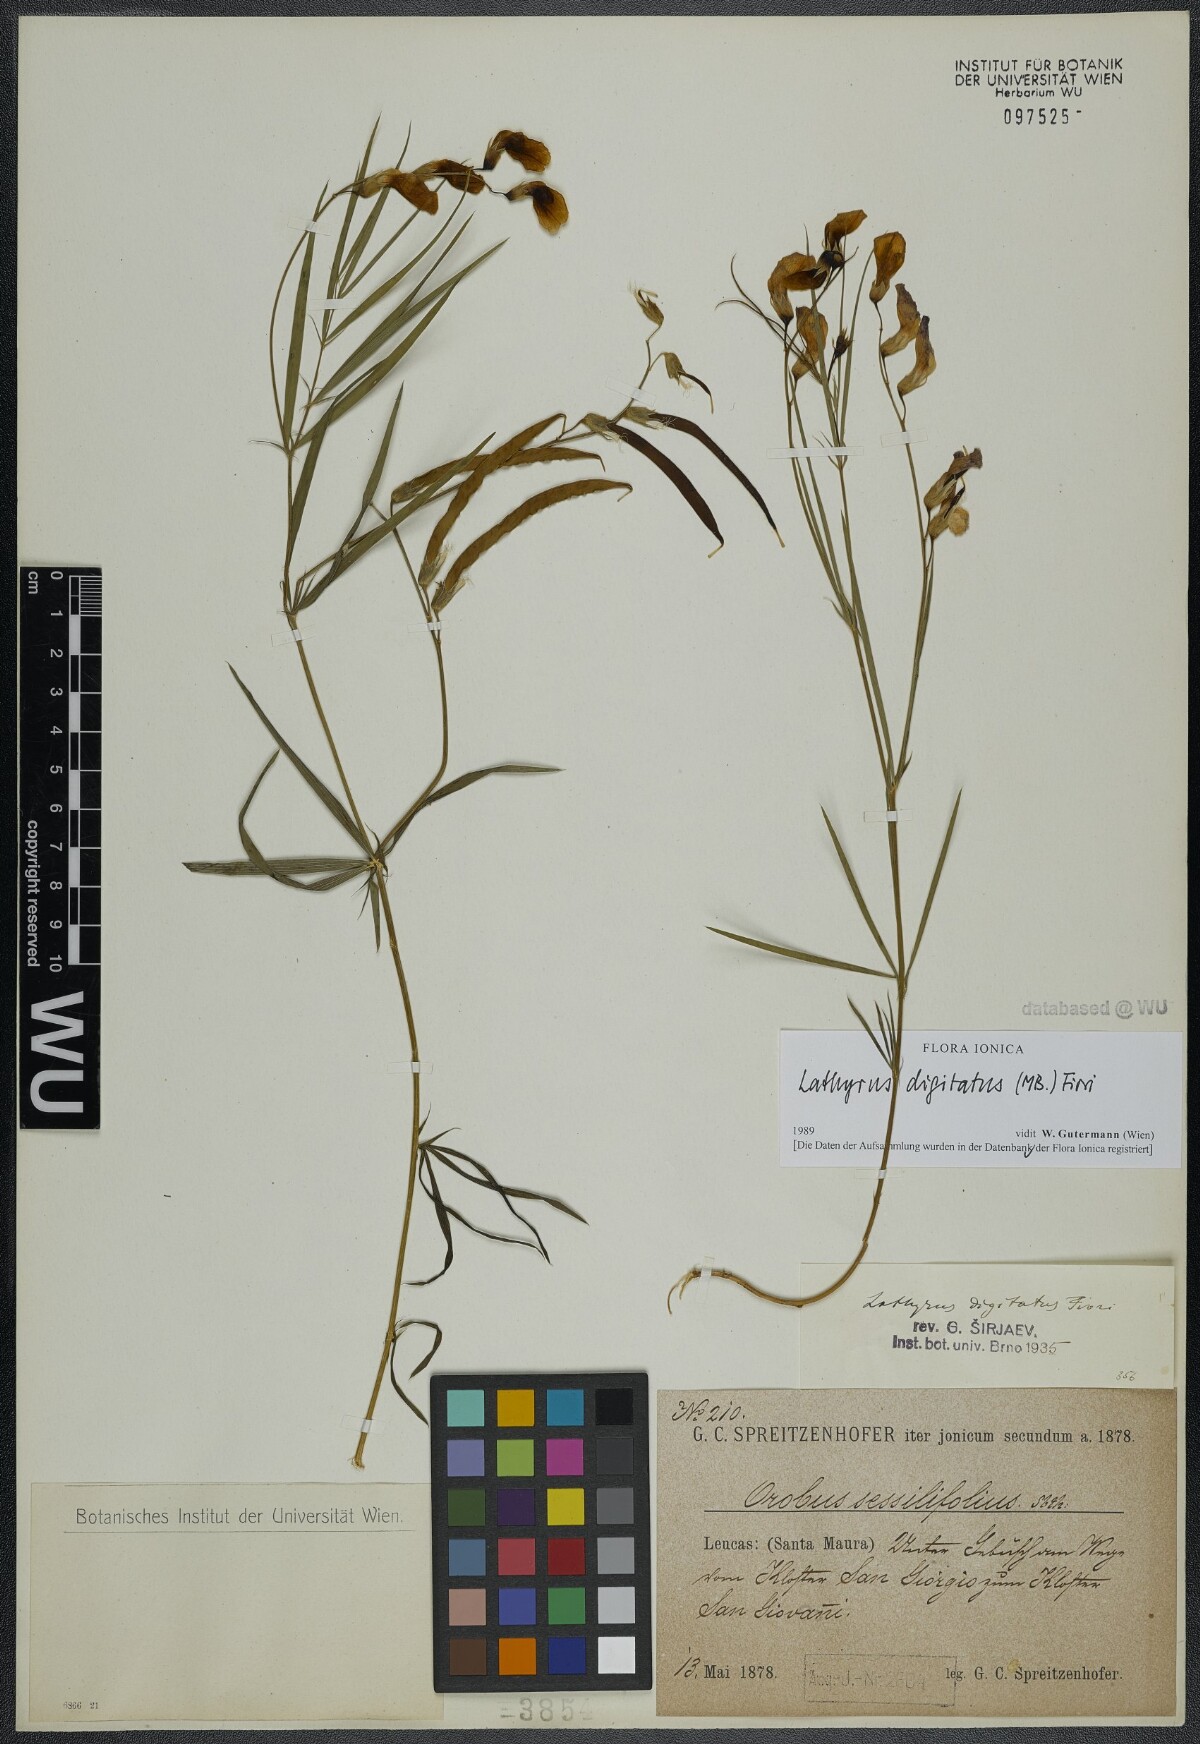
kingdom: Plantae
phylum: Tracheophyta
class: Magnoliopsida
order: Fabales
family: Fabaceae
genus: Lathyrus
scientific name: Lathyrus digitatus
